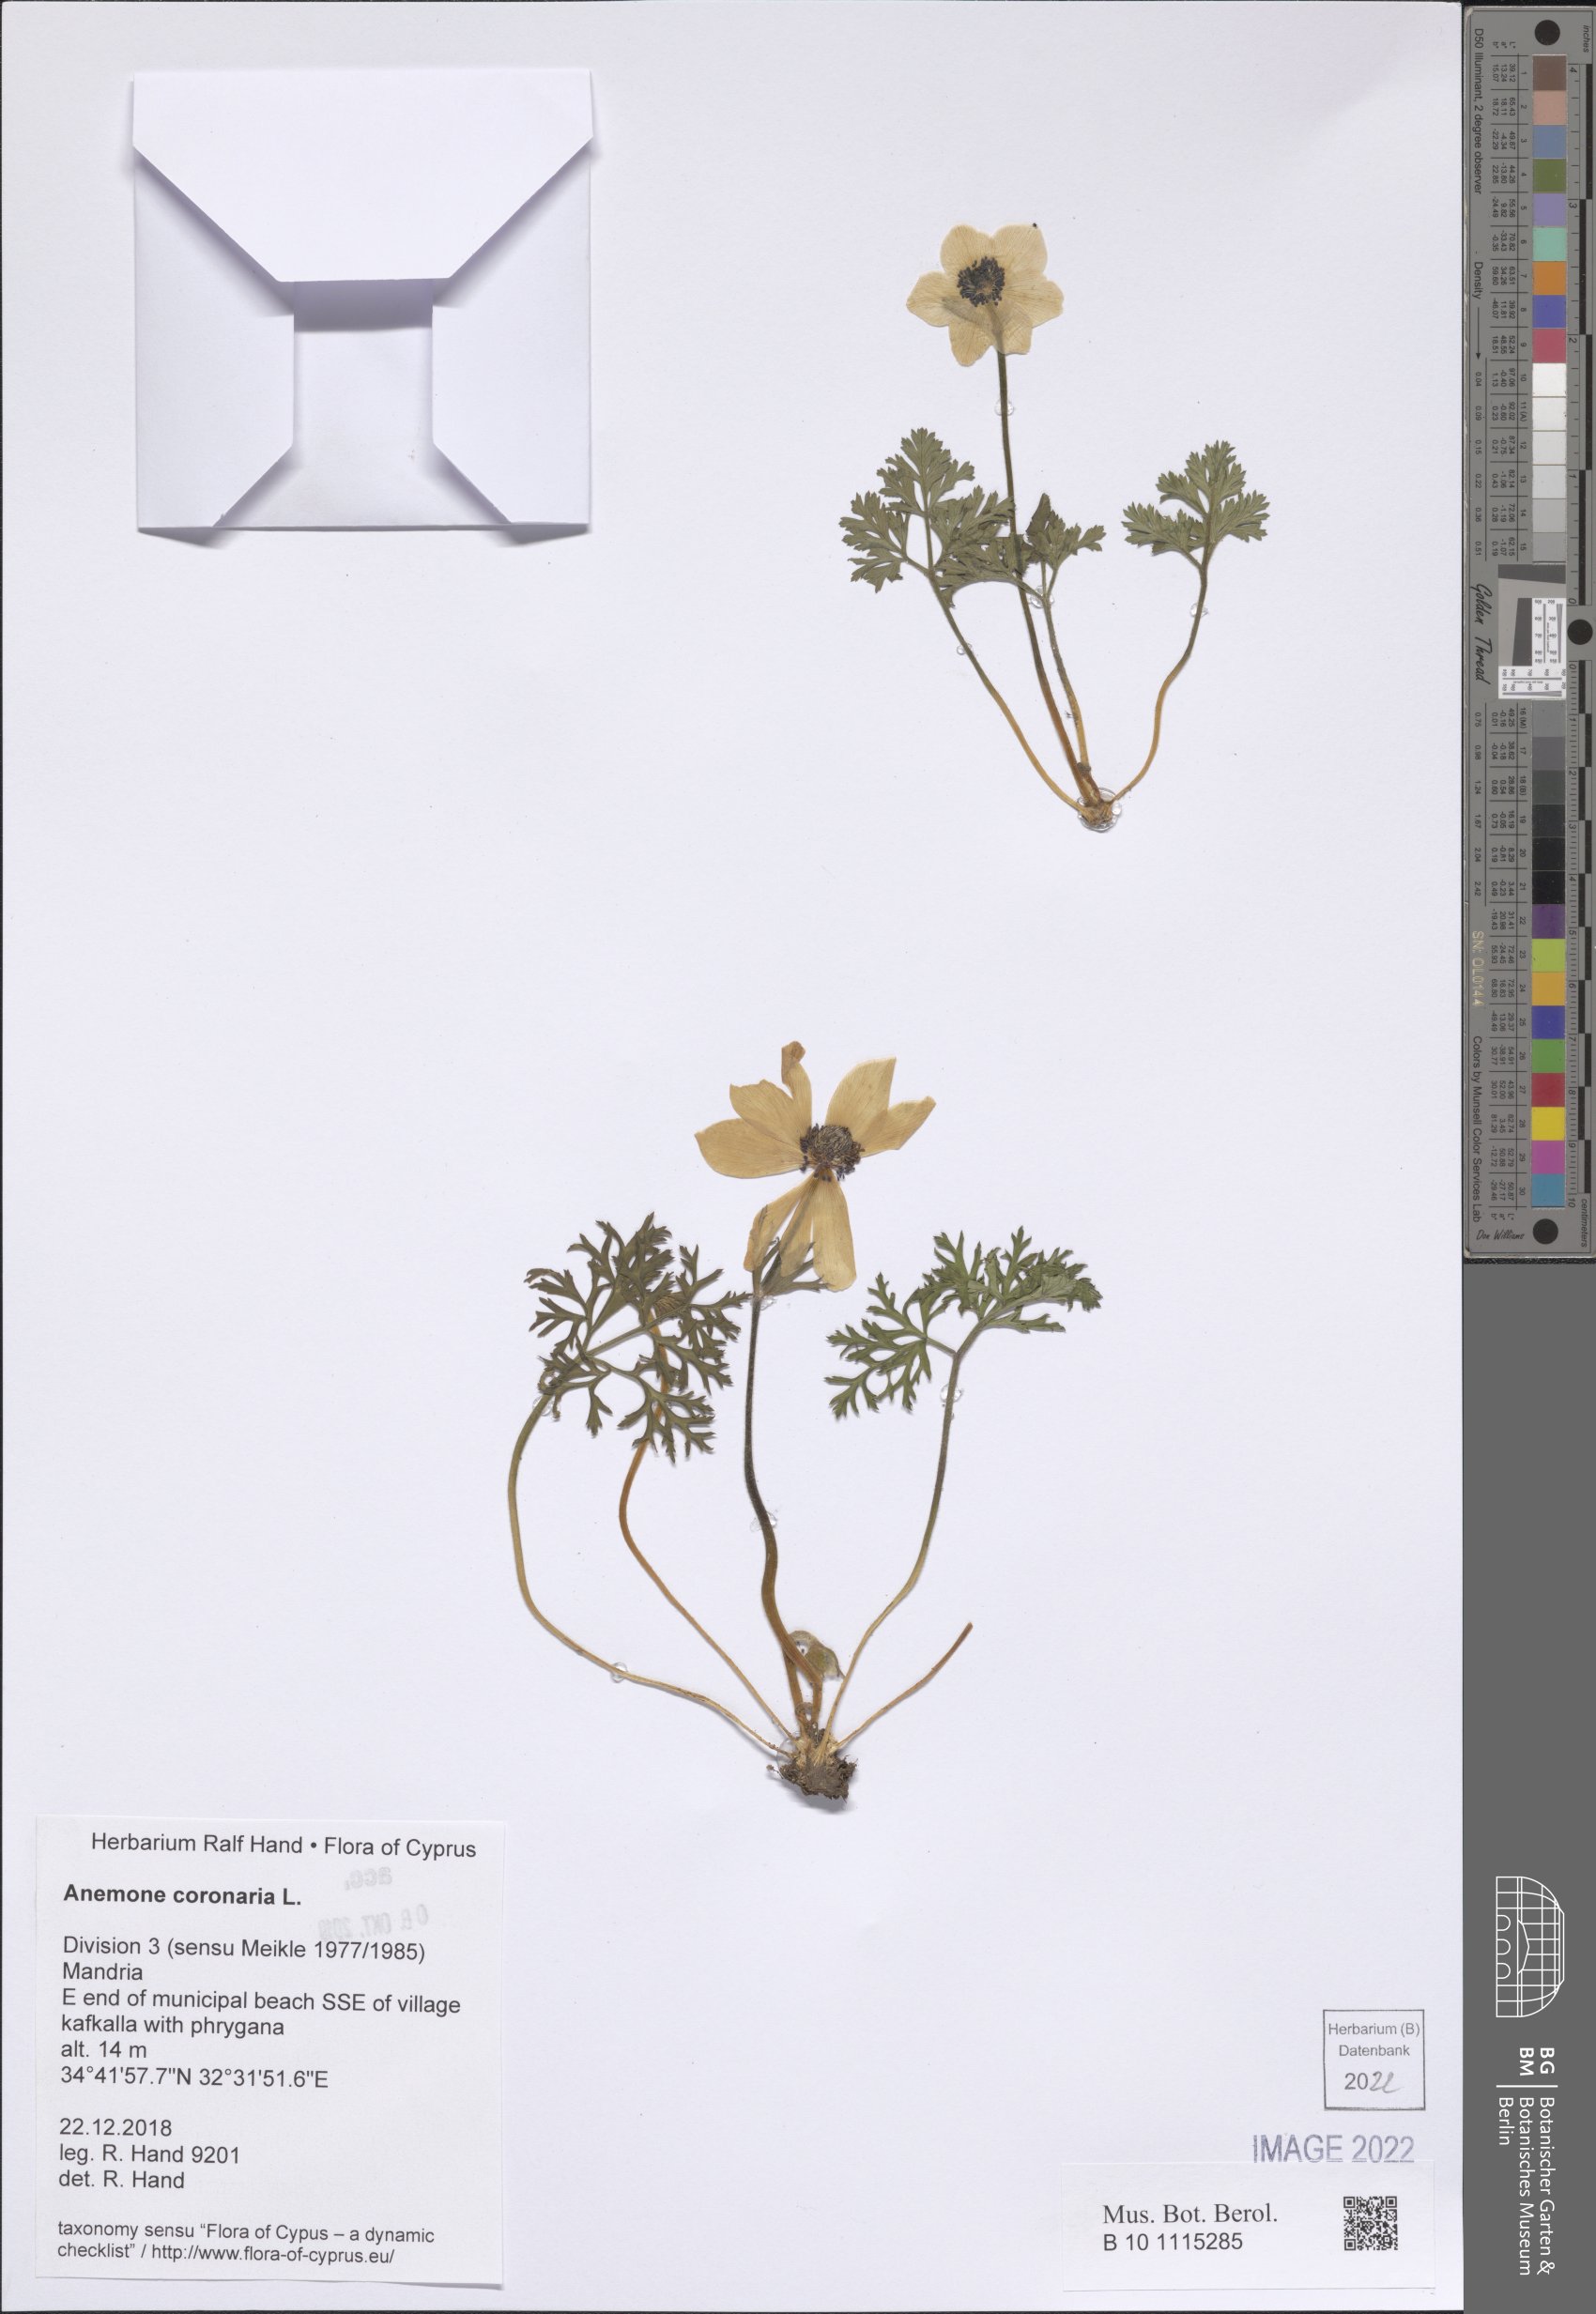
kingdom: Plantae
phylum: Tracheophyta
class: Magnoliopsida
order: Ranunculales
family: Ranunculaceae
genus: Anemone
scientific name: Anemone coronaria
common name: Poppy anemone
